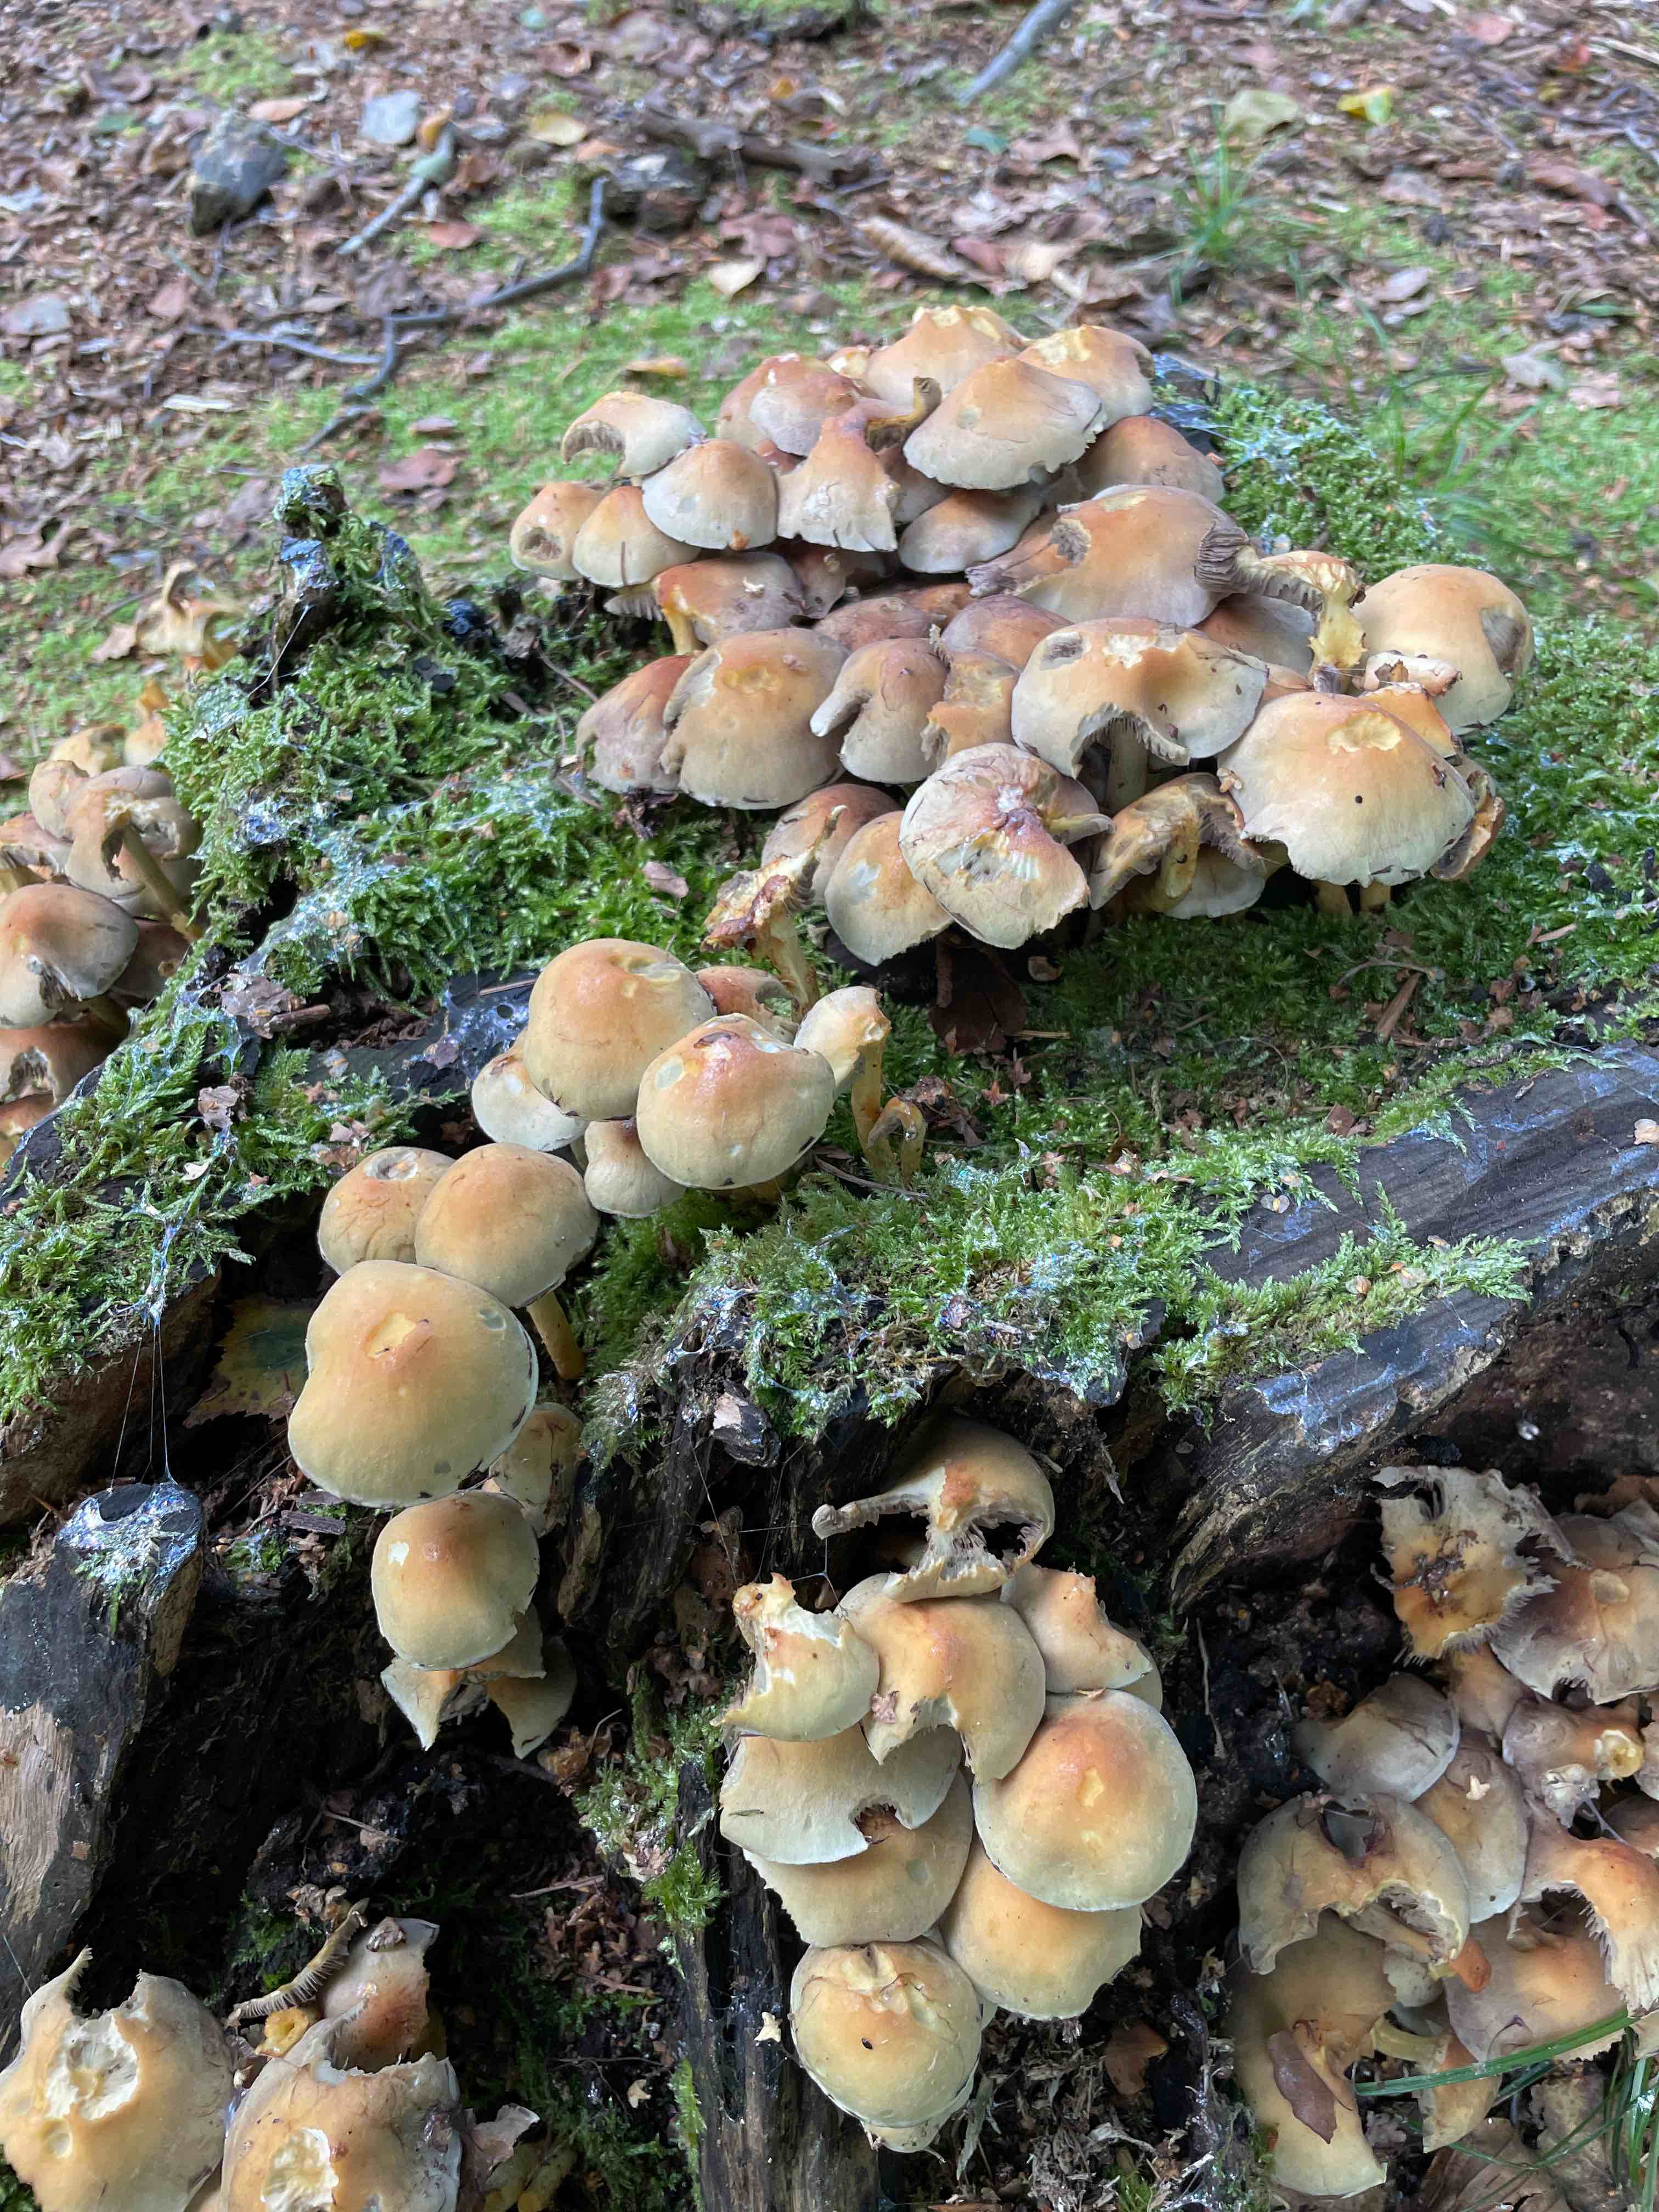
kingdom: Fungi
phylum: Basidiomycota
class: Agaricomycetes
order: Agaricales
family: Strophariaceae
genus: Hypholoma
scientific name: Hypholoma fasciculare
